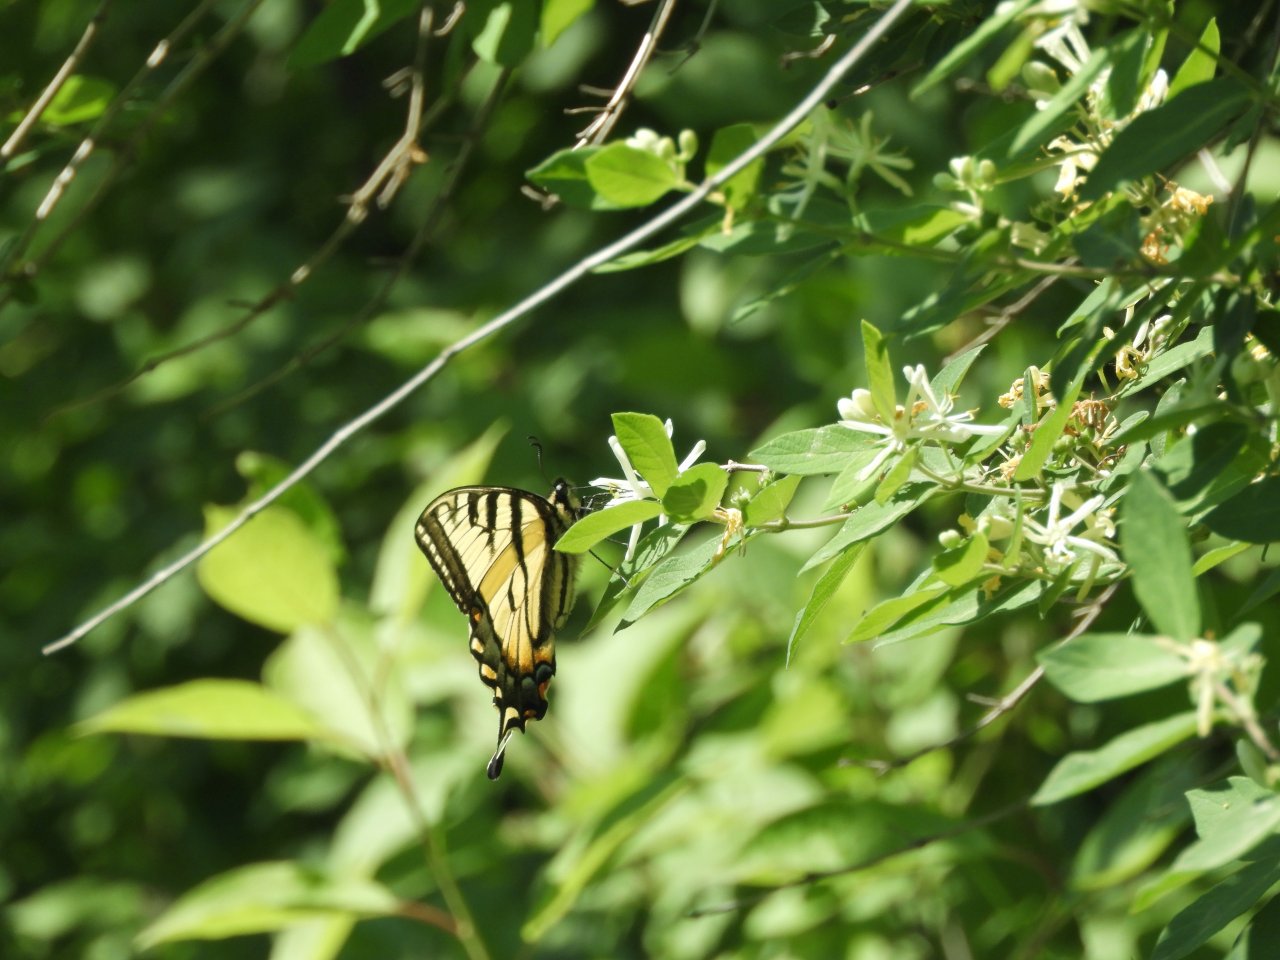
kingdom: Animalia
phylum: Arthropoda
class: Insecta
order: Lepidoptera
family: Papilionidae
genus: Pterourus
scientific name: Pterourus canadensis
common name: Canadian Tiger Swallowtail
